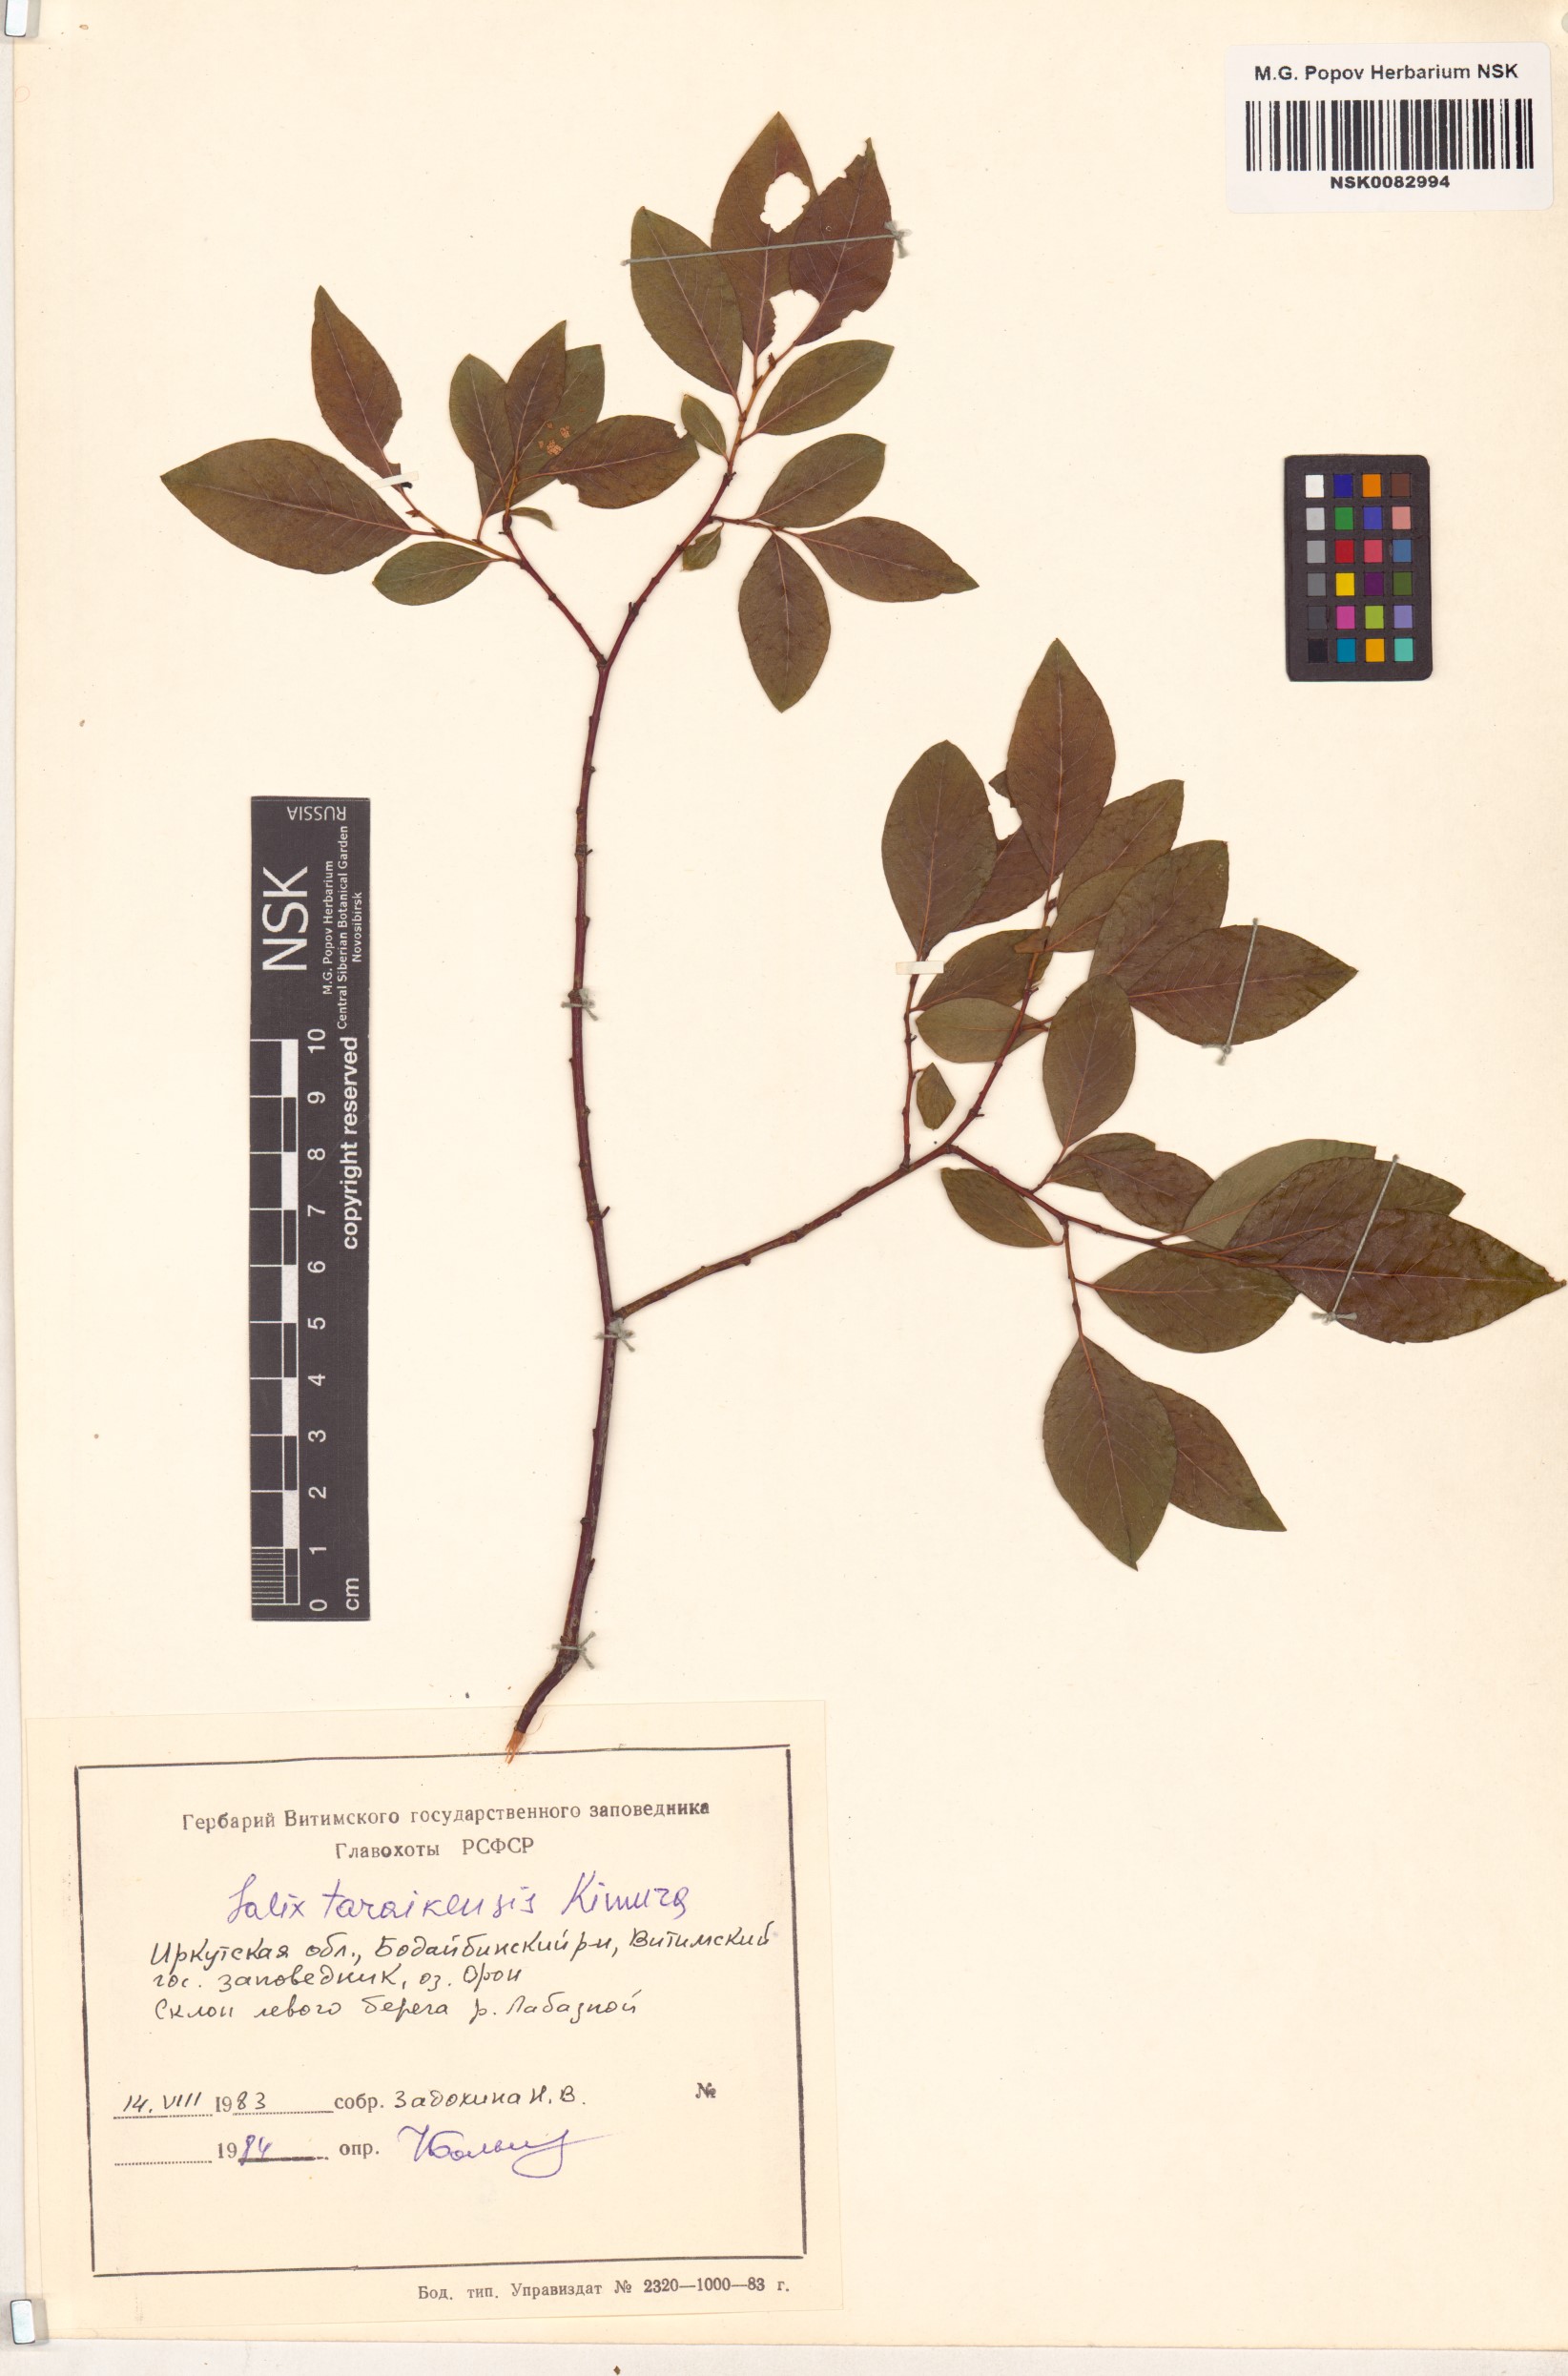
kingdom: Plantae
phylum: Tracheophyta
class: Magnoliopsida
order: Malpighiales
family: Salicaceae
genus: Salix
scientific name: Salix taraikensis
